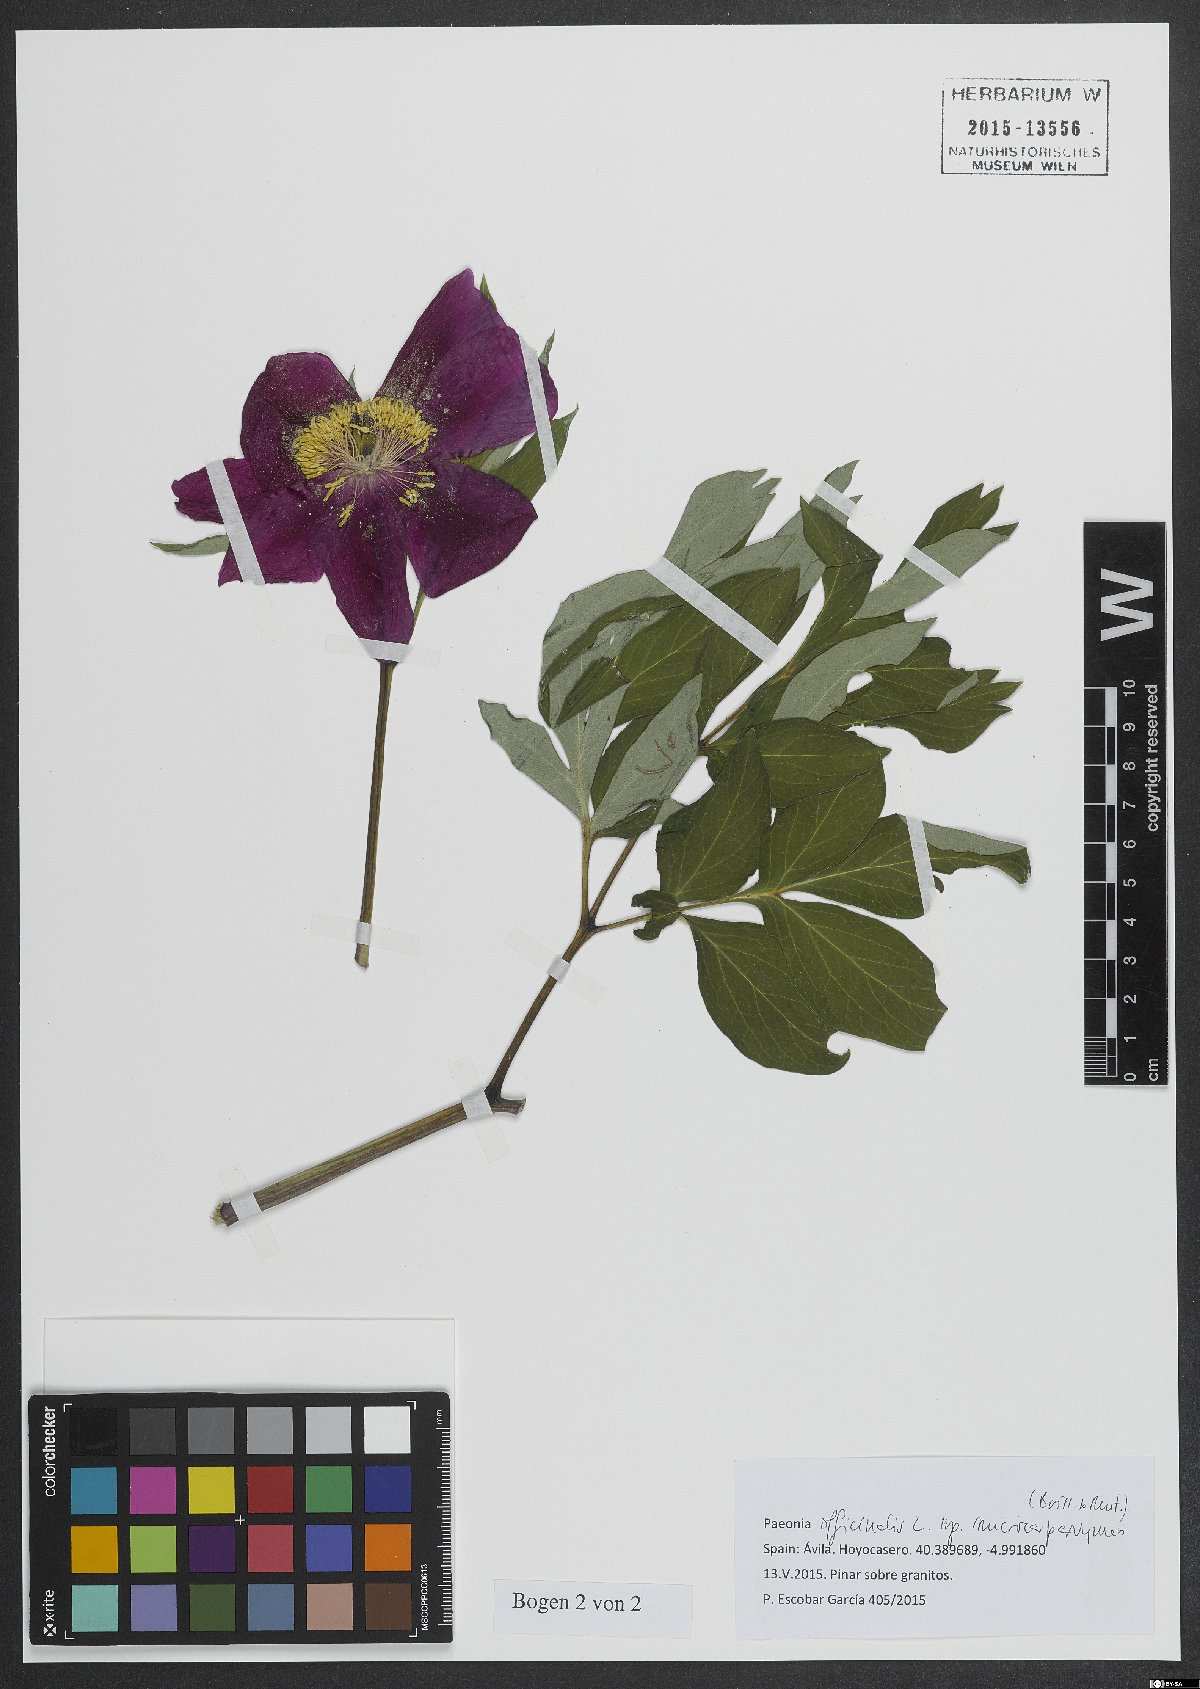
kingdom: Plantae
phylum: Tracheophyta
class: Magnoliopsida
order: Saxifragales
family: Paeoniaceae
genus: Paeonia
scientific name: Paeonia officinalis
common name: Common peony
